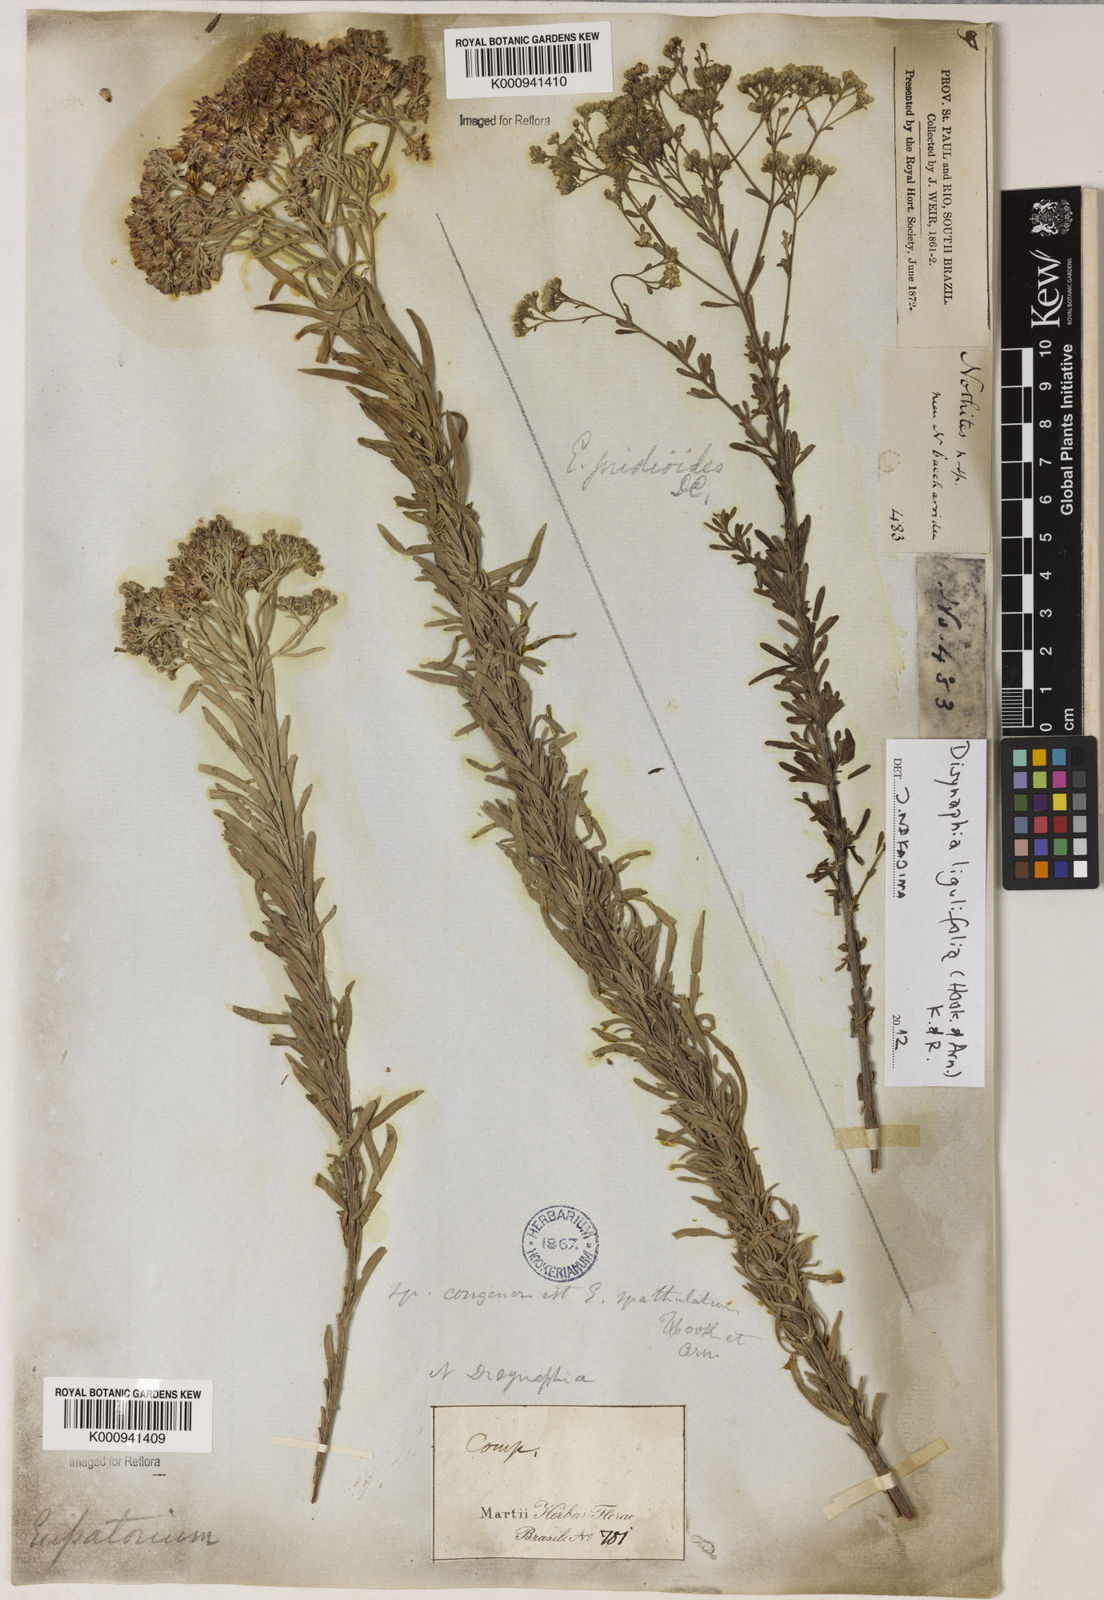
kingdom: Plantae
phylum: Tracheophyta
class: Magnoliopsida
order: Asterales
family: Asteraceae
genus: Disynaphia
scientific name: Disynaphia halimifolia
